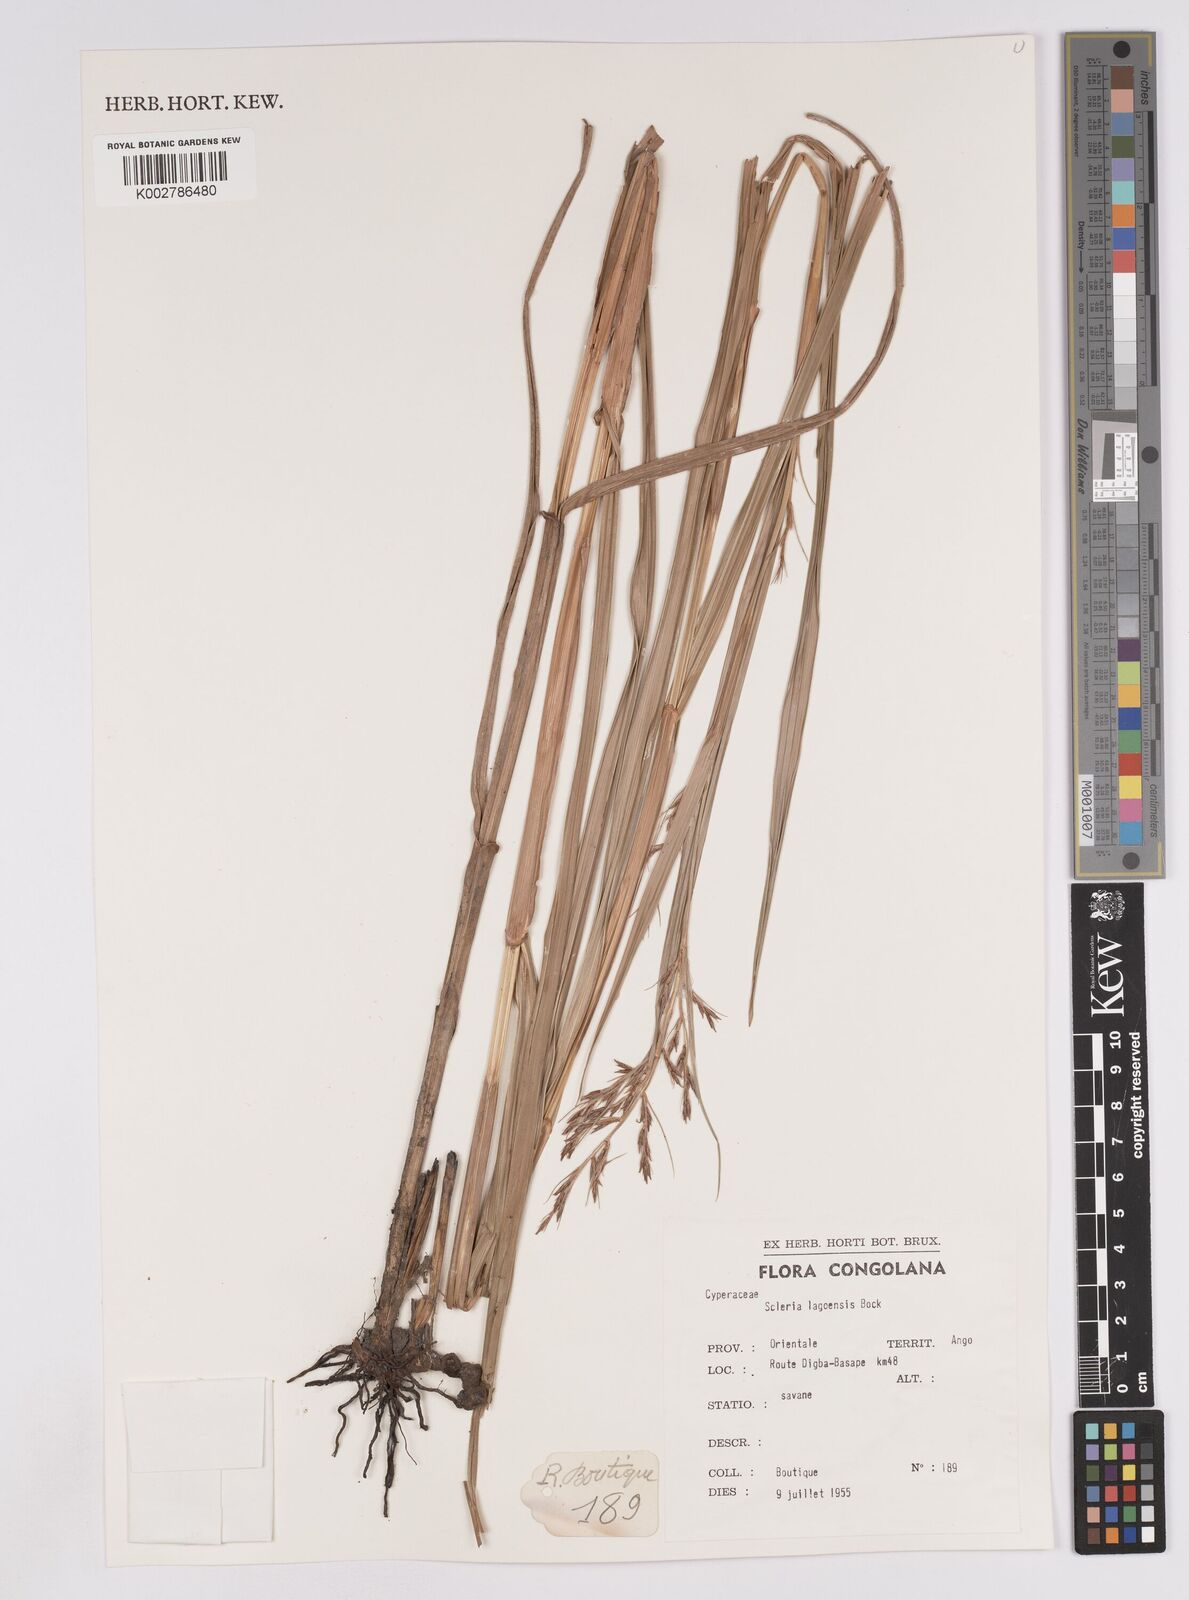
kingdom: Plantae
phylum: Tracheophyta
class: Liliopsida
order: Poales
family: Cyperaceae
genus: Scleria
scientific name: Scleria lagoensis
